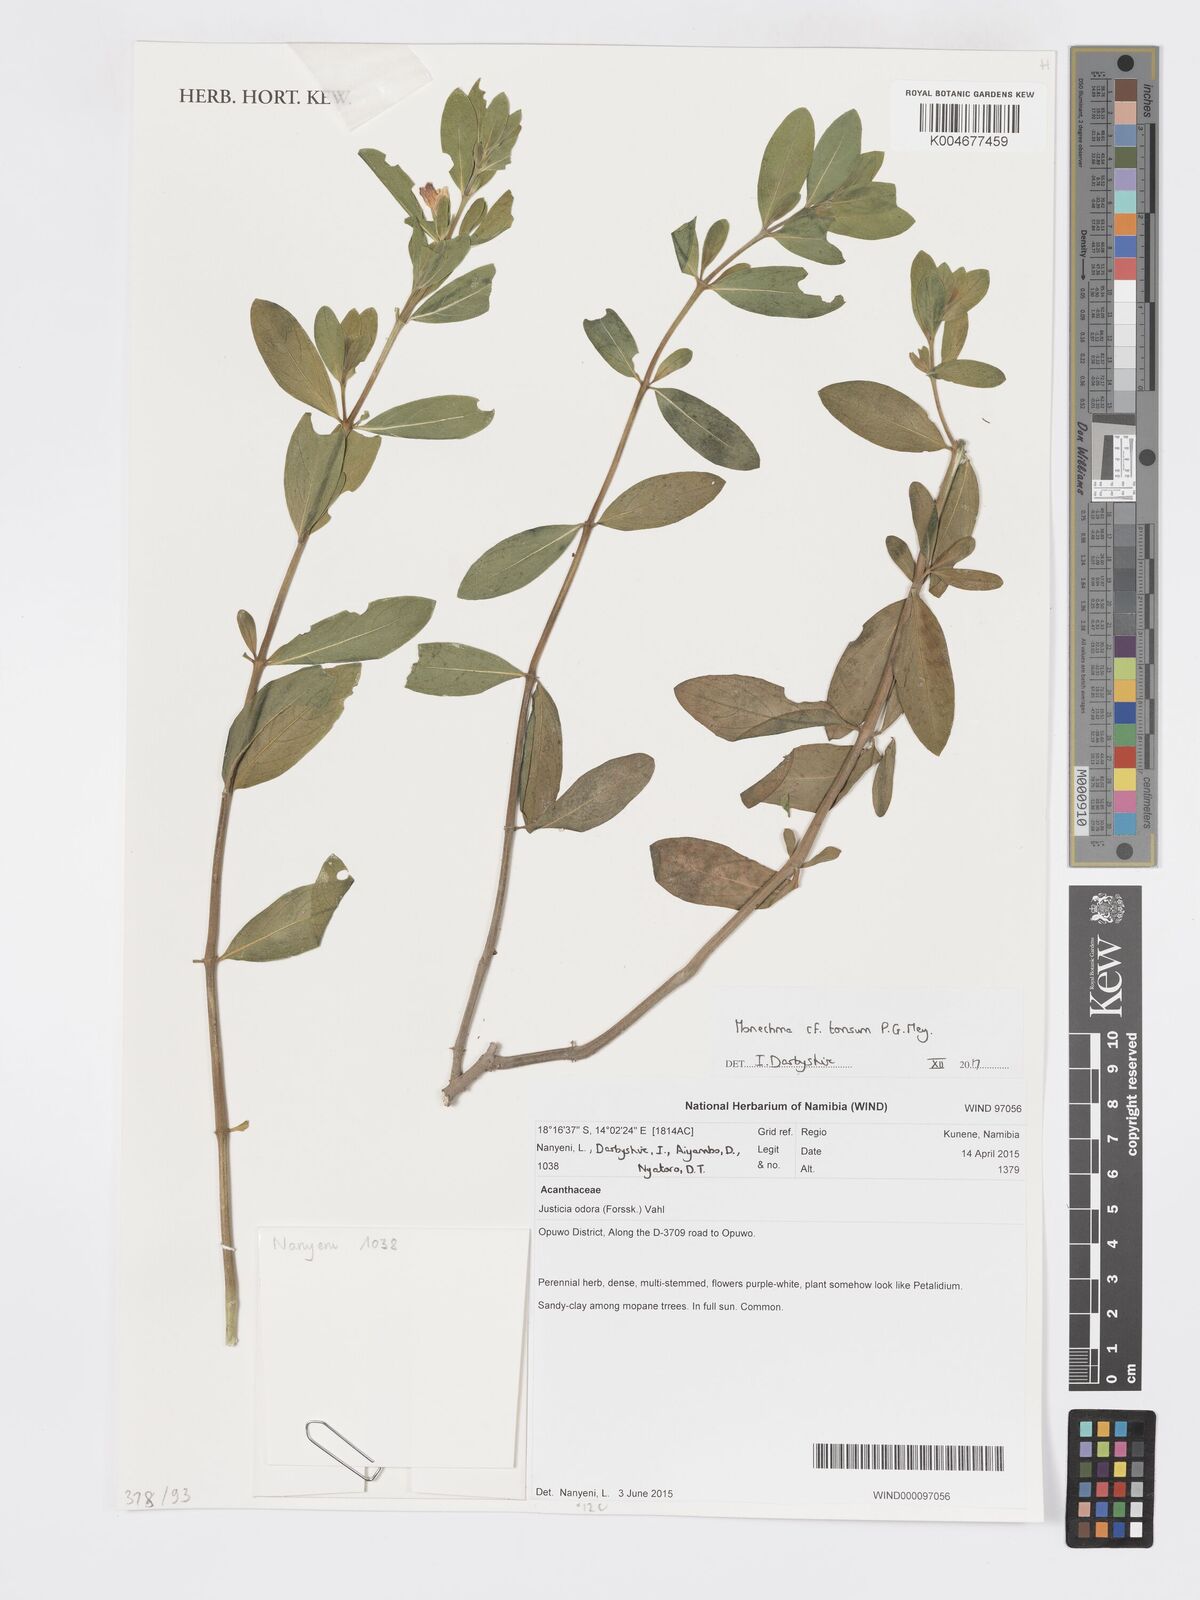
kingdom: Plantae
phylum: Tracheophyta
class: Magnoliopsida
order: Lamiales
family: Acanthaceae
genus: Pogonospermum
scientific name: Pogonospermum
